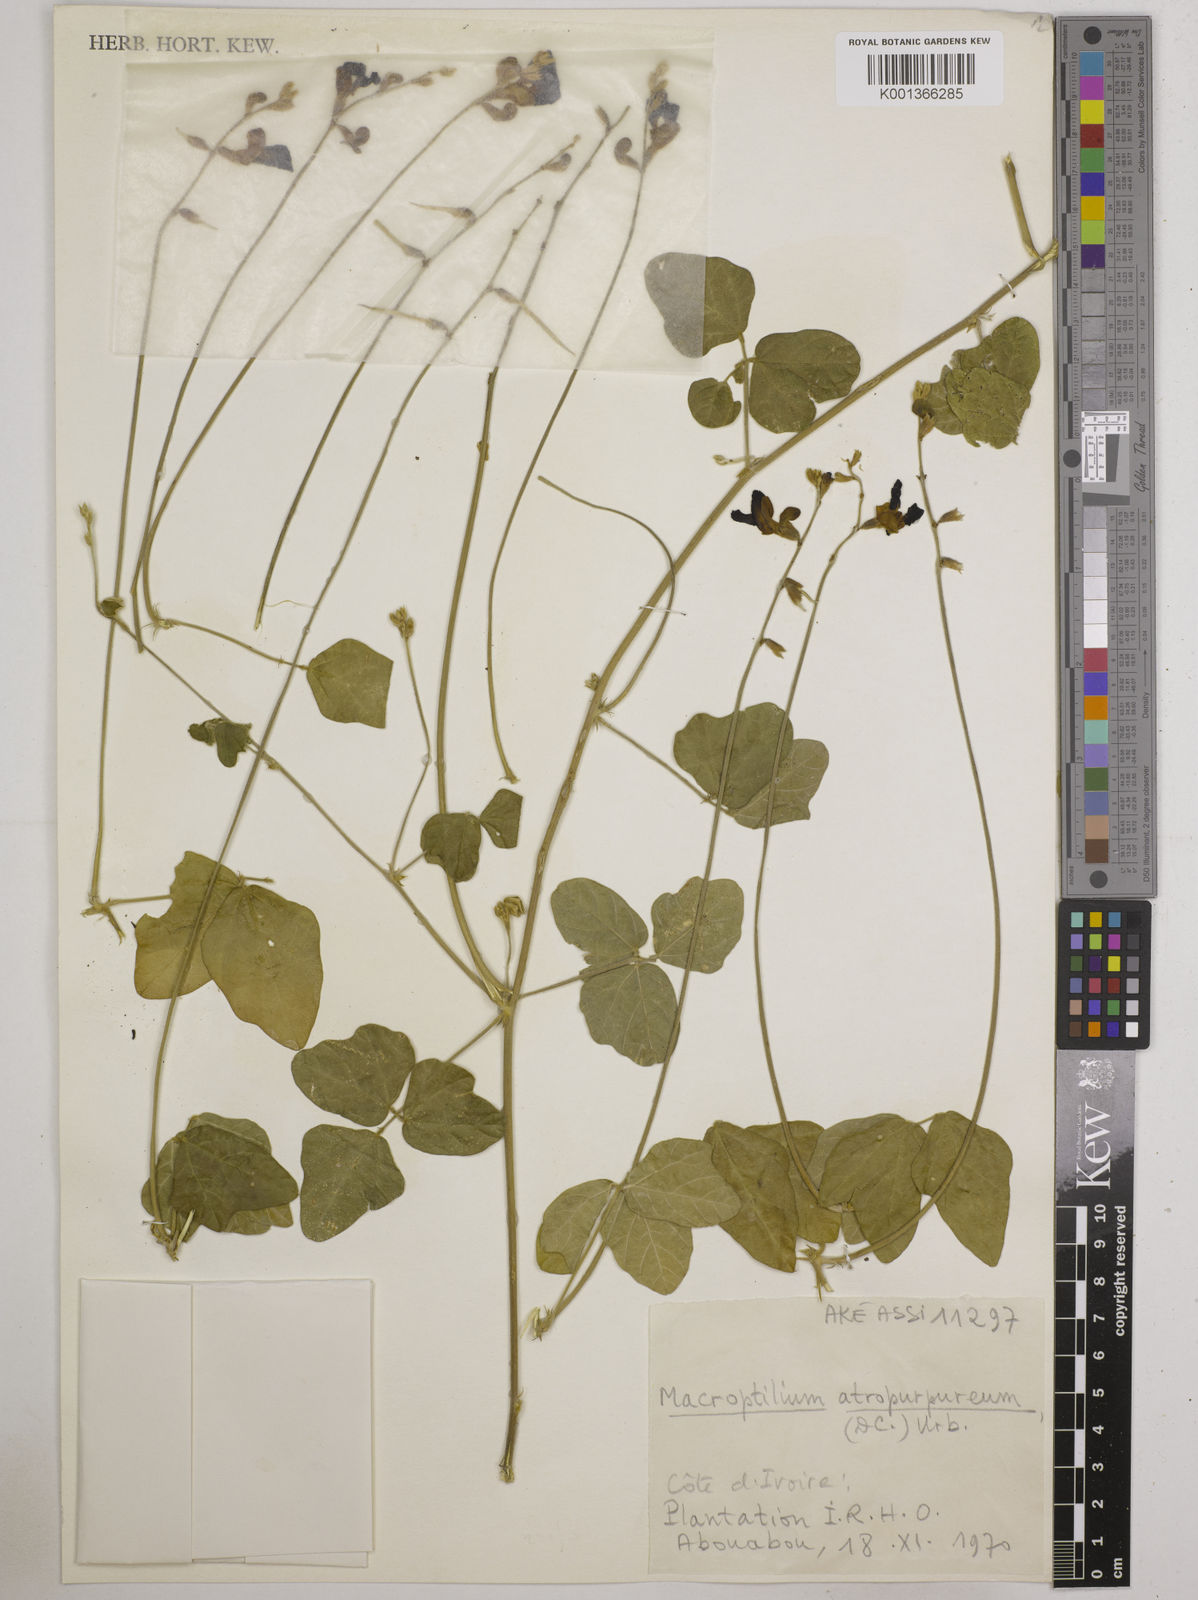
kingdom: Plantae
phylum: Tracheophyta
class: Magnoliopsida
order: Fabales
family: Fabaceae
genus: Macroptilium
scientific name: Macroptilium atropurpureum
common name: Purple bushbean
